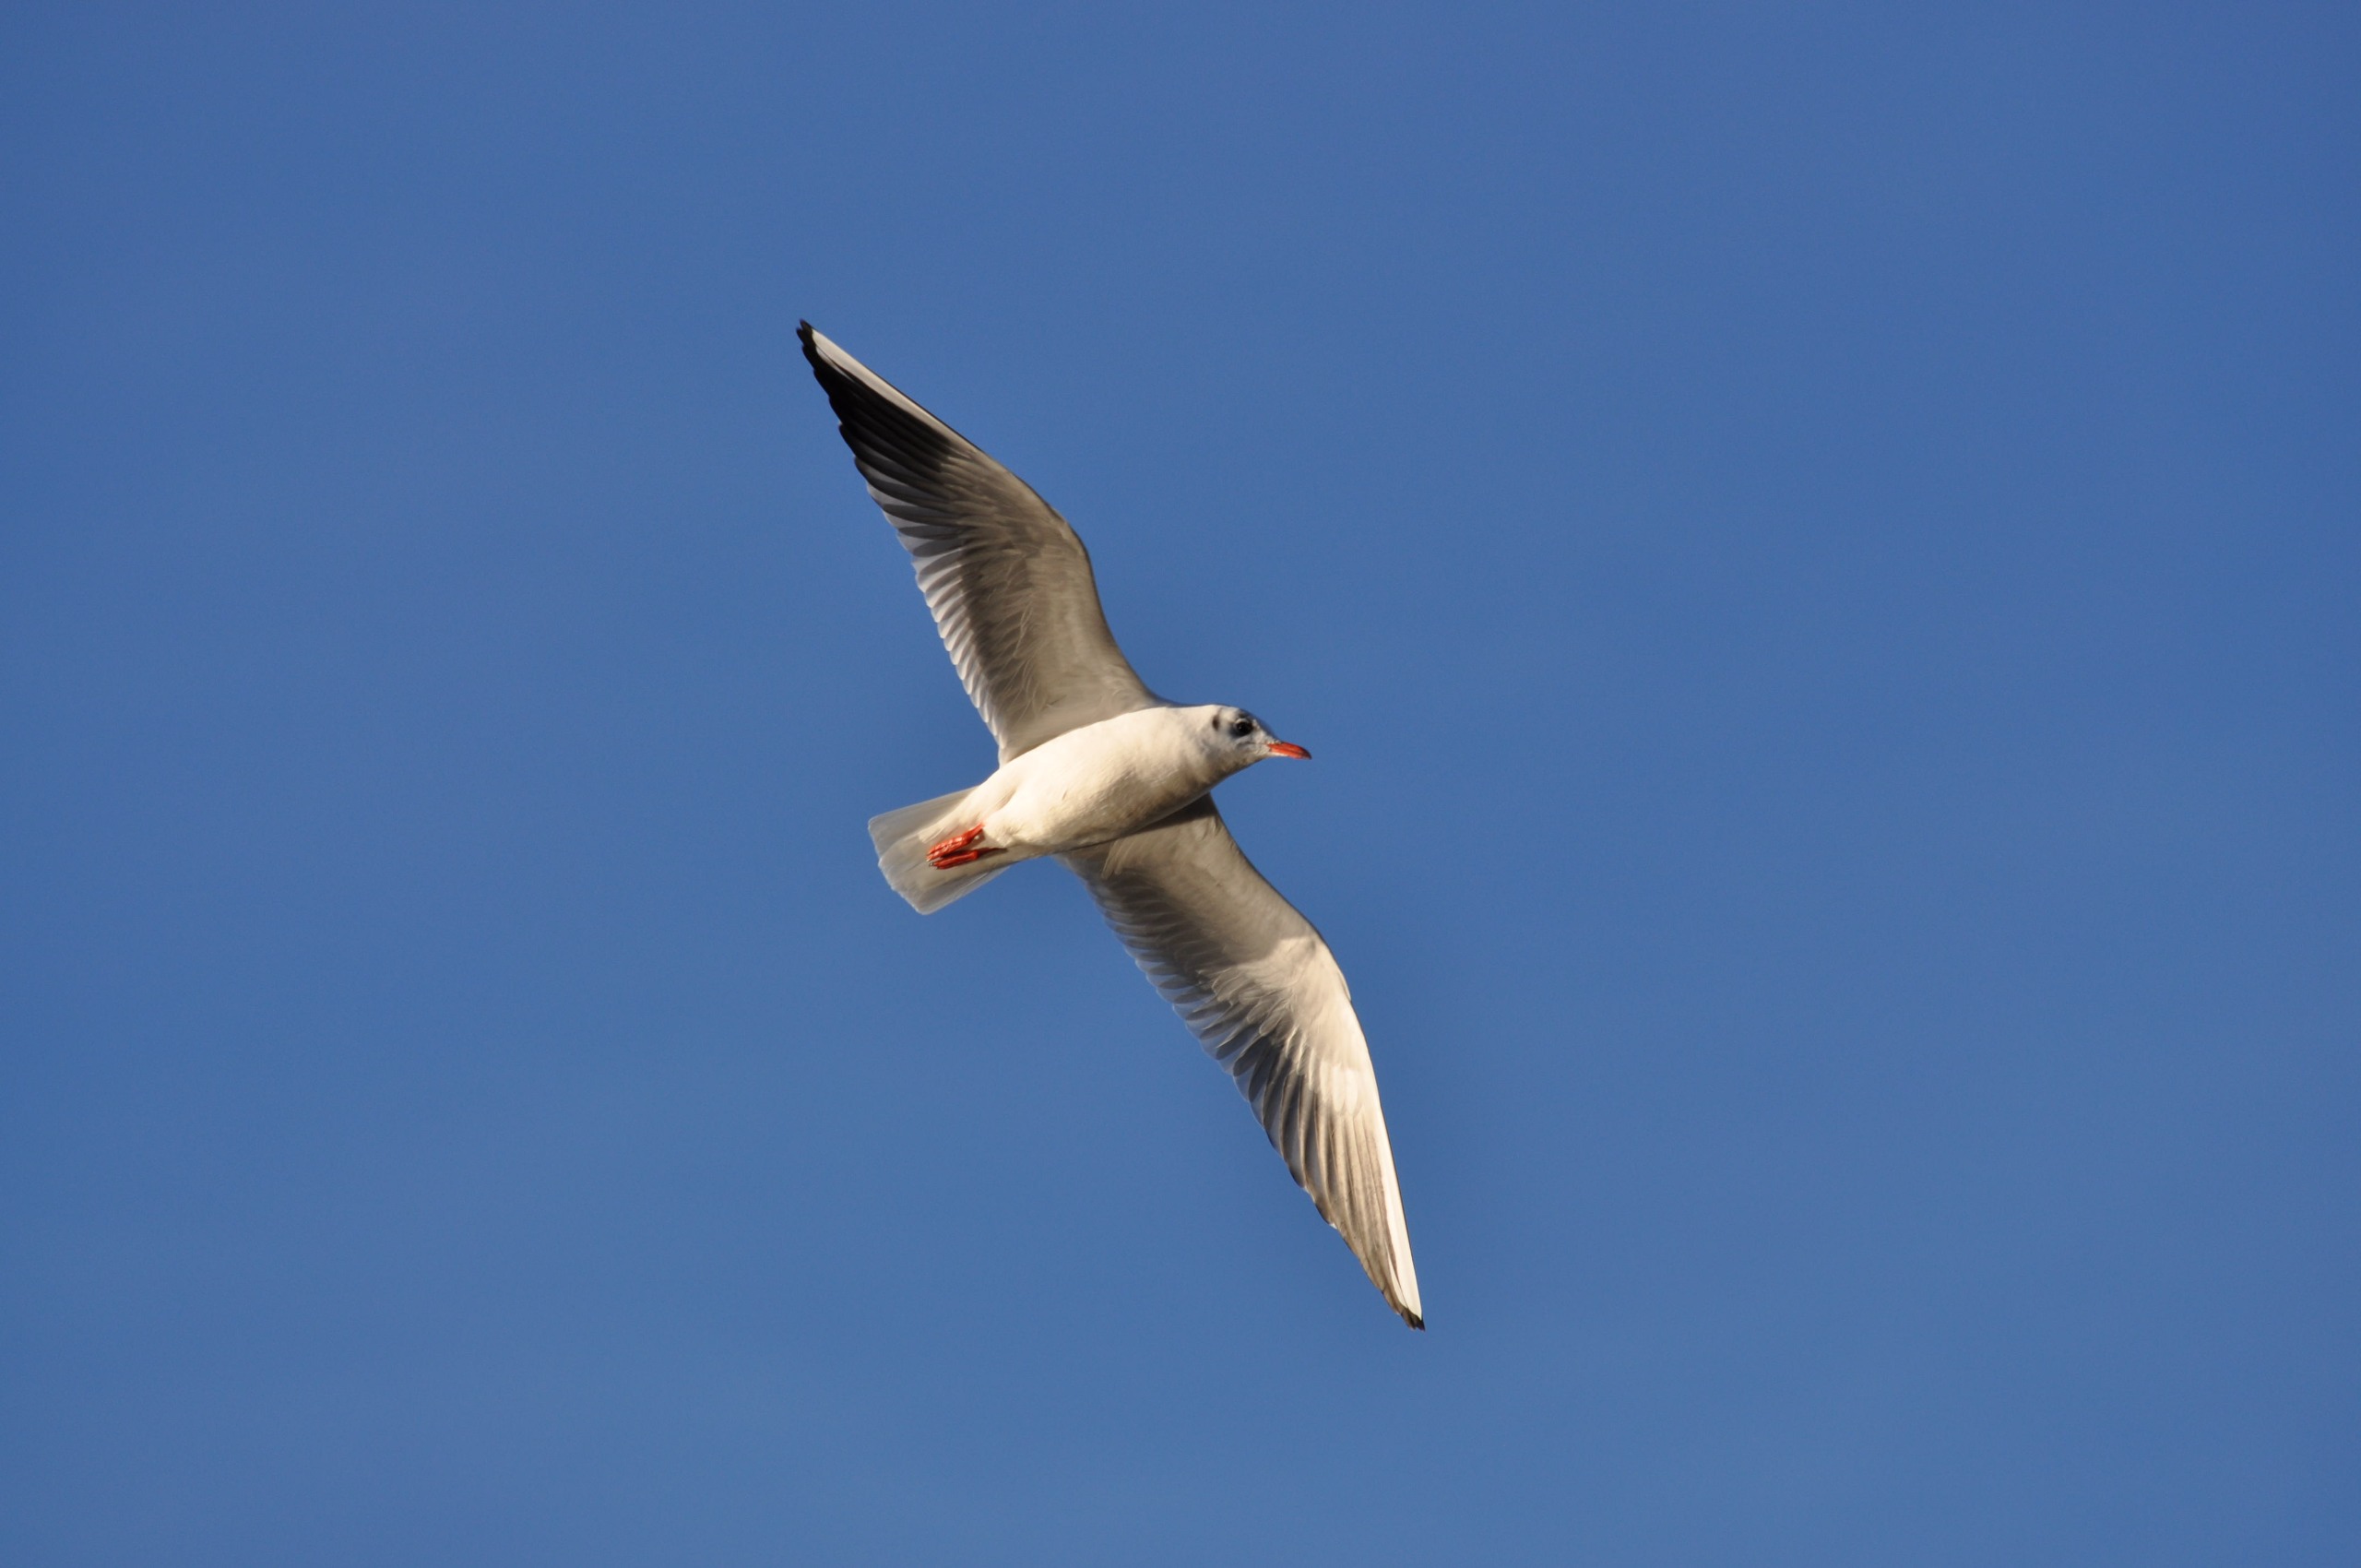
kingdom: Animalia
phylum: Chordata
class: Aves
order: Charadriiformes
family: Laridae
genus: Chroicocephalus
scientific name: Chroicocephalus ridibundus
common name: Hættemåge
